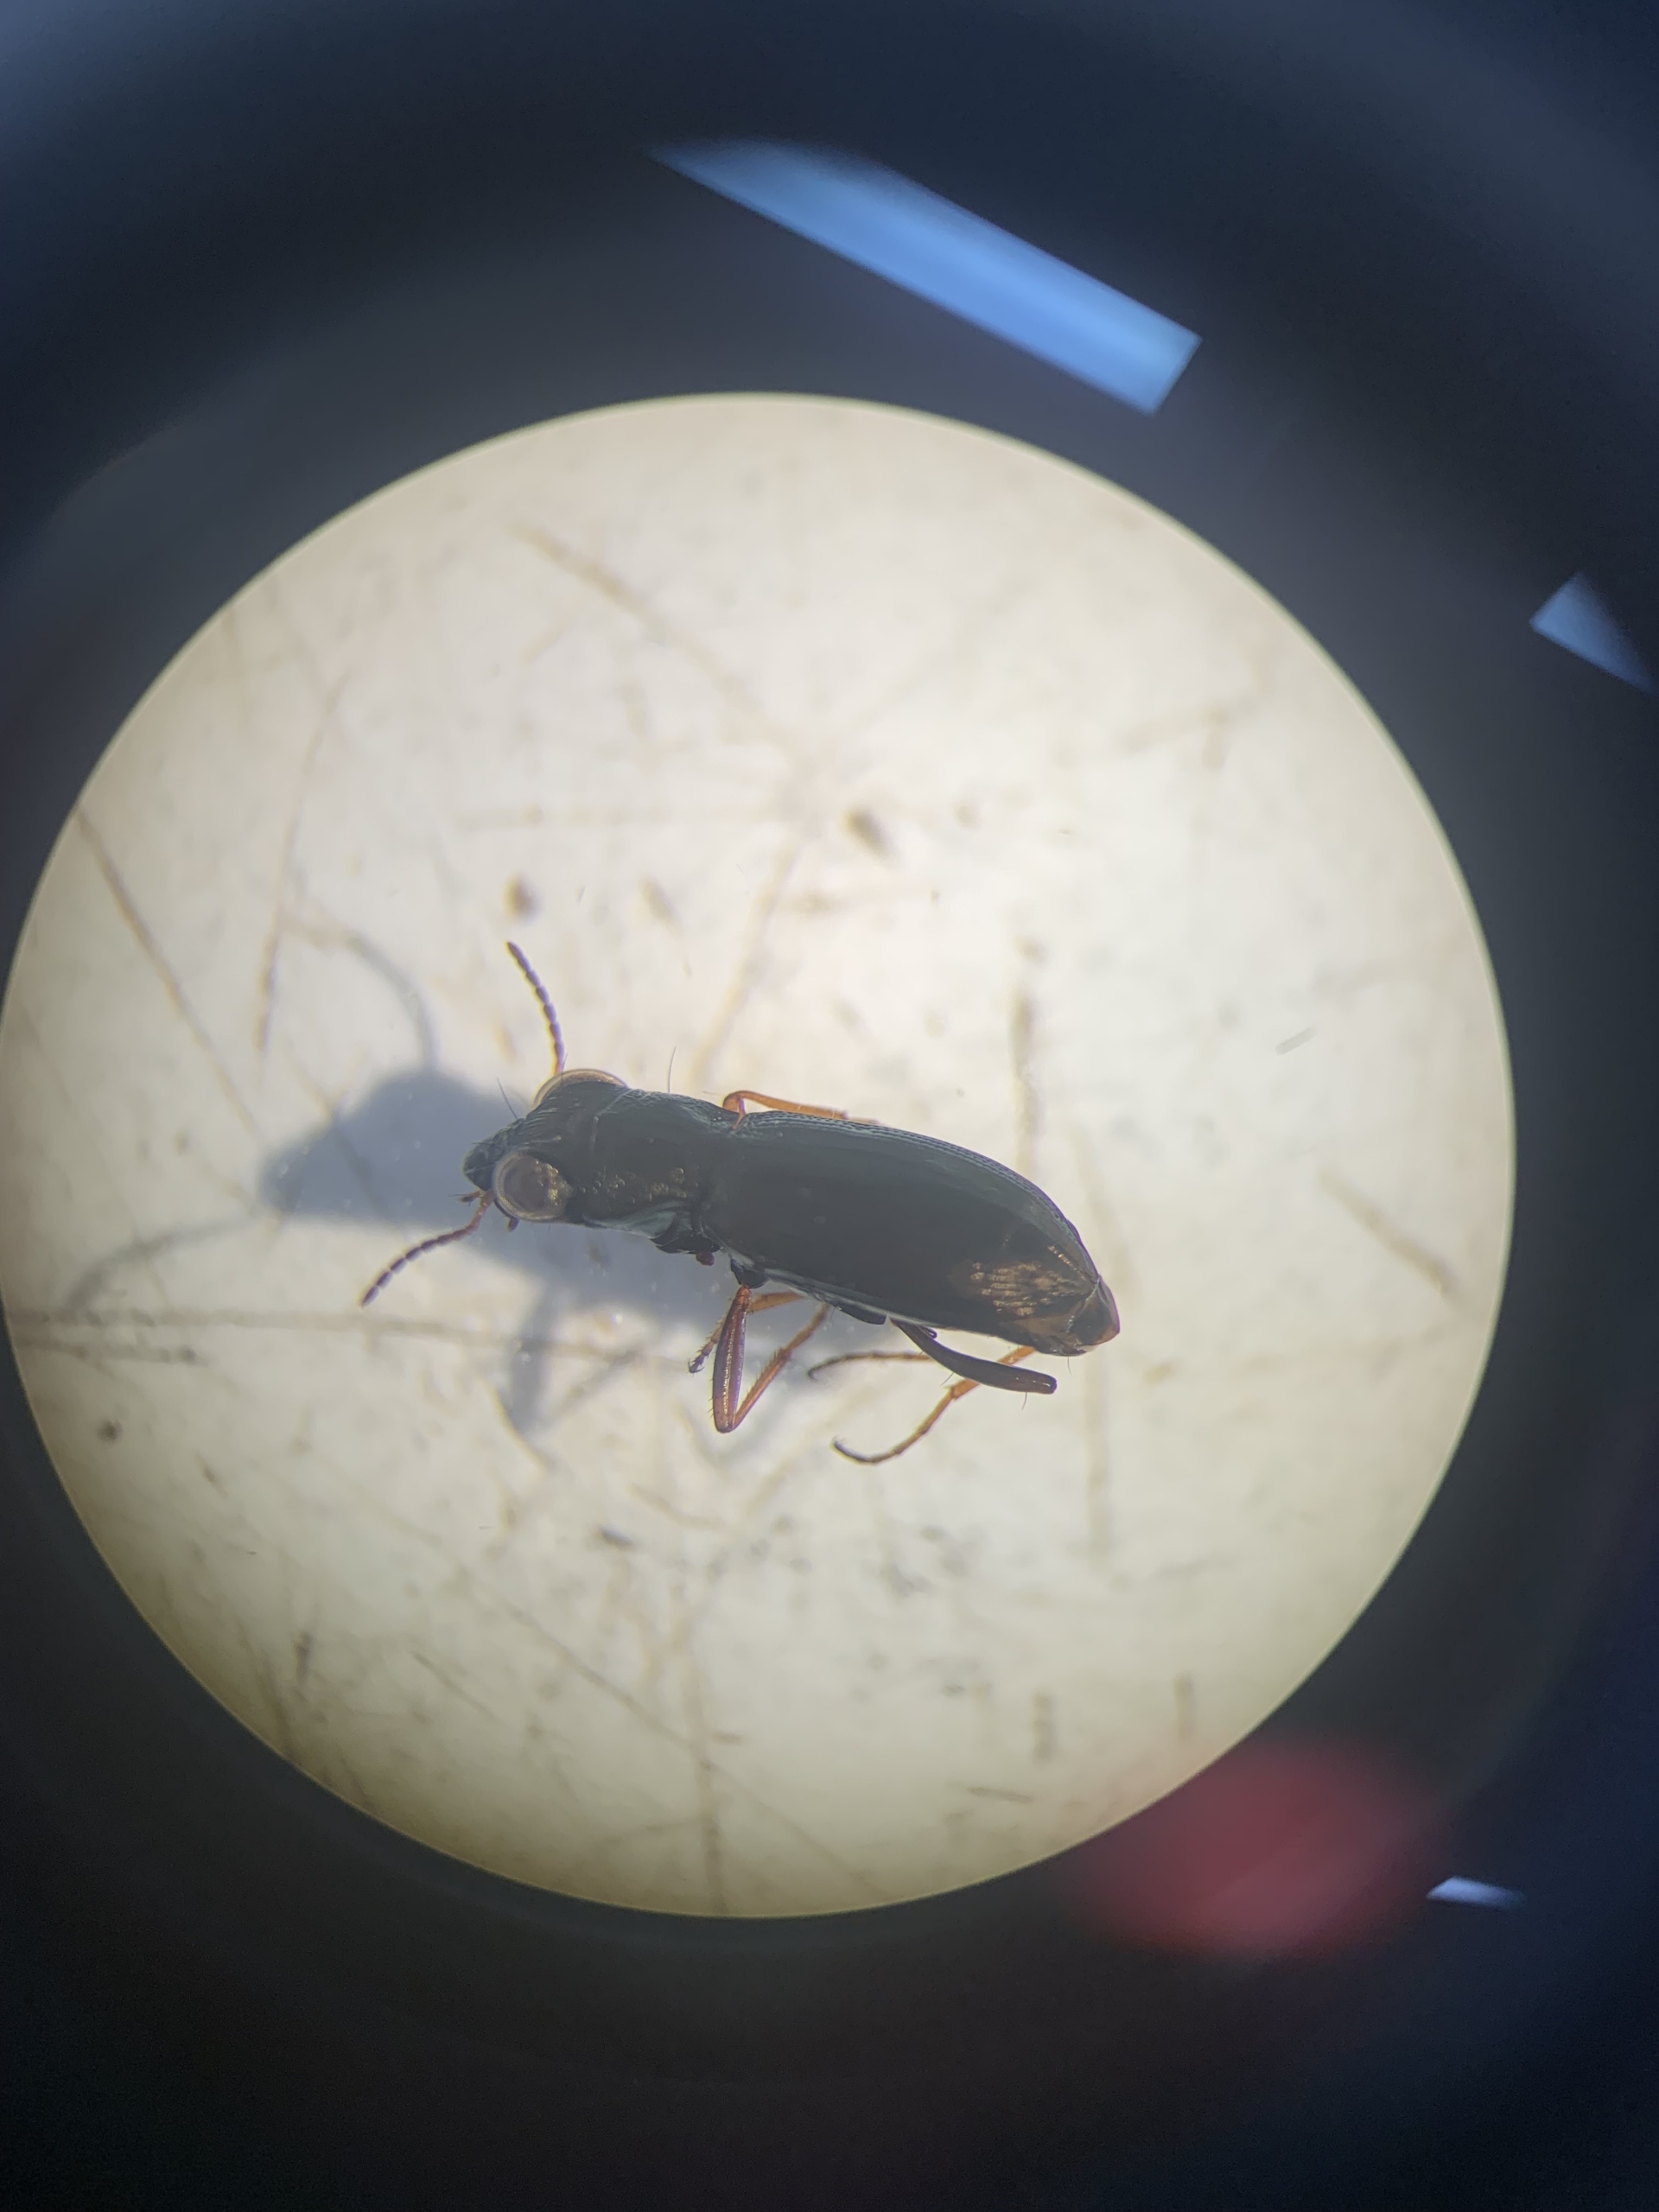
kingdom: Animalia
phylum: Arthropoda
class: Insecta
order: Coleoptera
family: Carabidae
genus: Notiophilus
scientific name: Notiophilus
